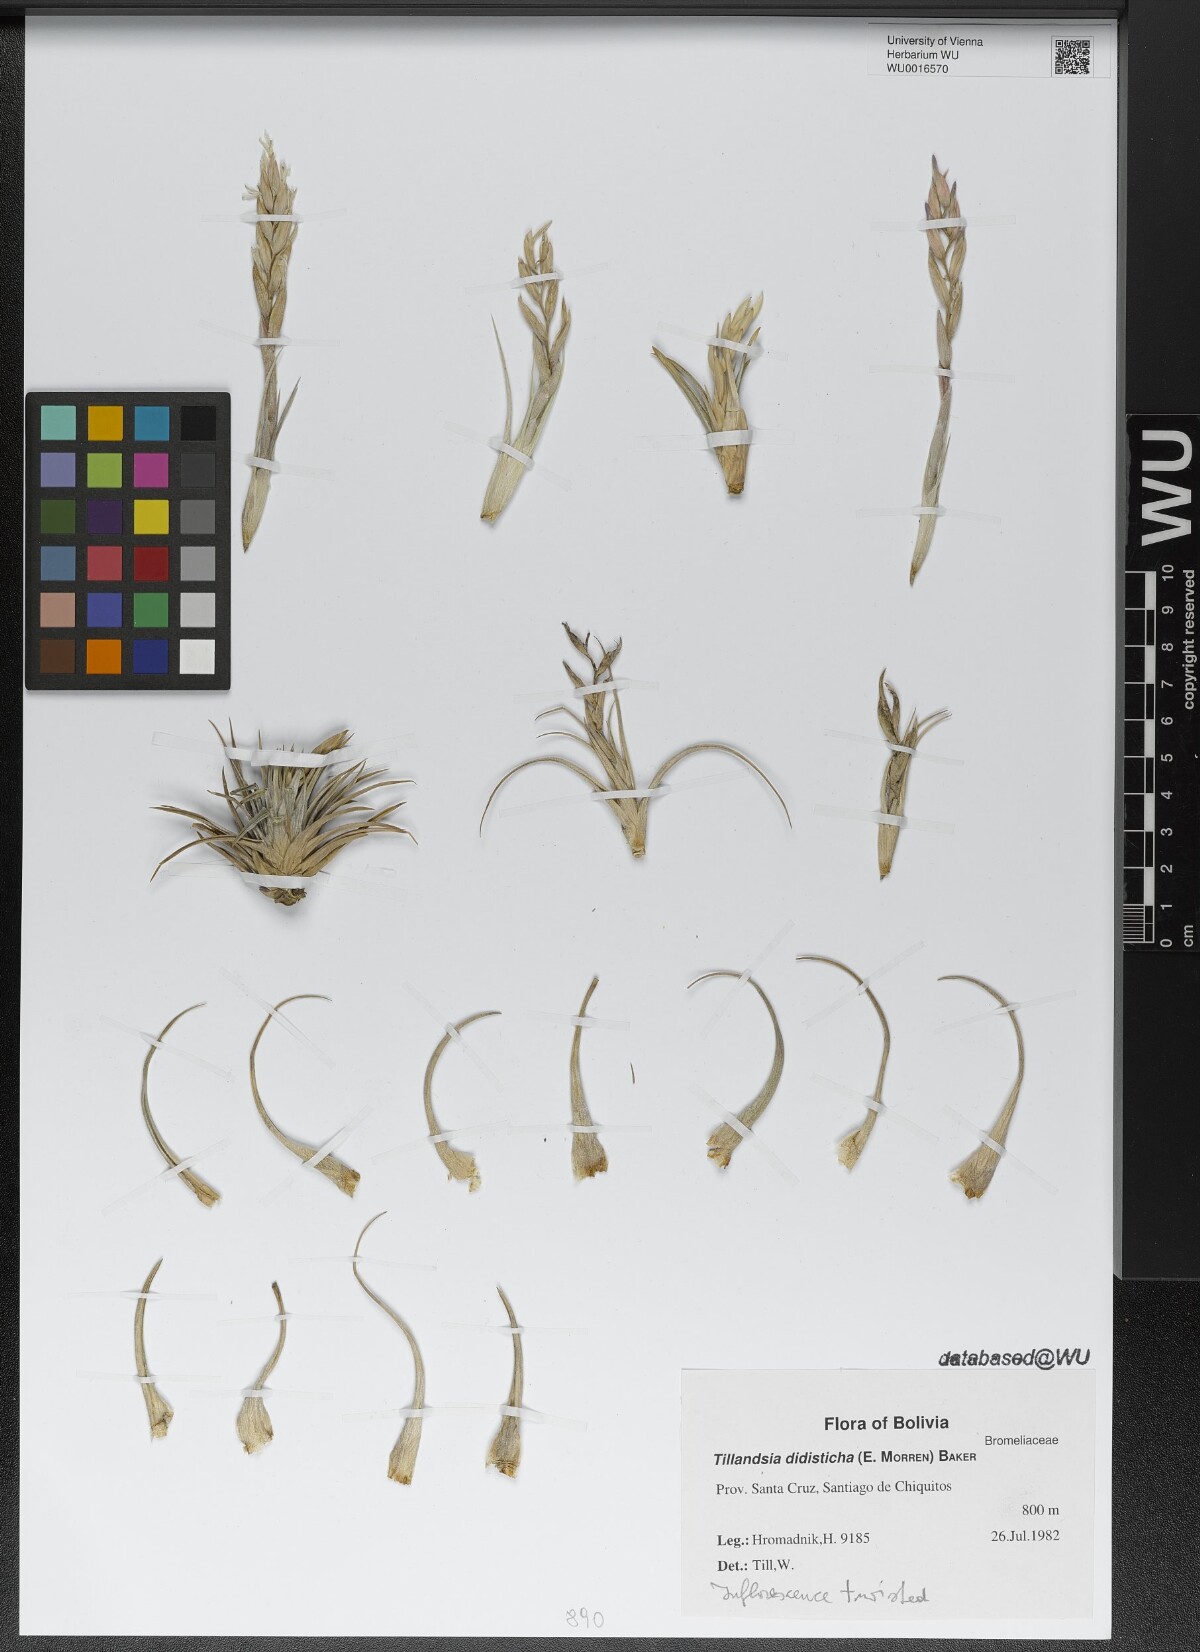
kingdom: Plantae
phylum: Tracheophyta
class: Liliopsida
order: Poales
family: Bromeliaceae
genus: Tillandsia
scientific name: Tillandsia didisticha
